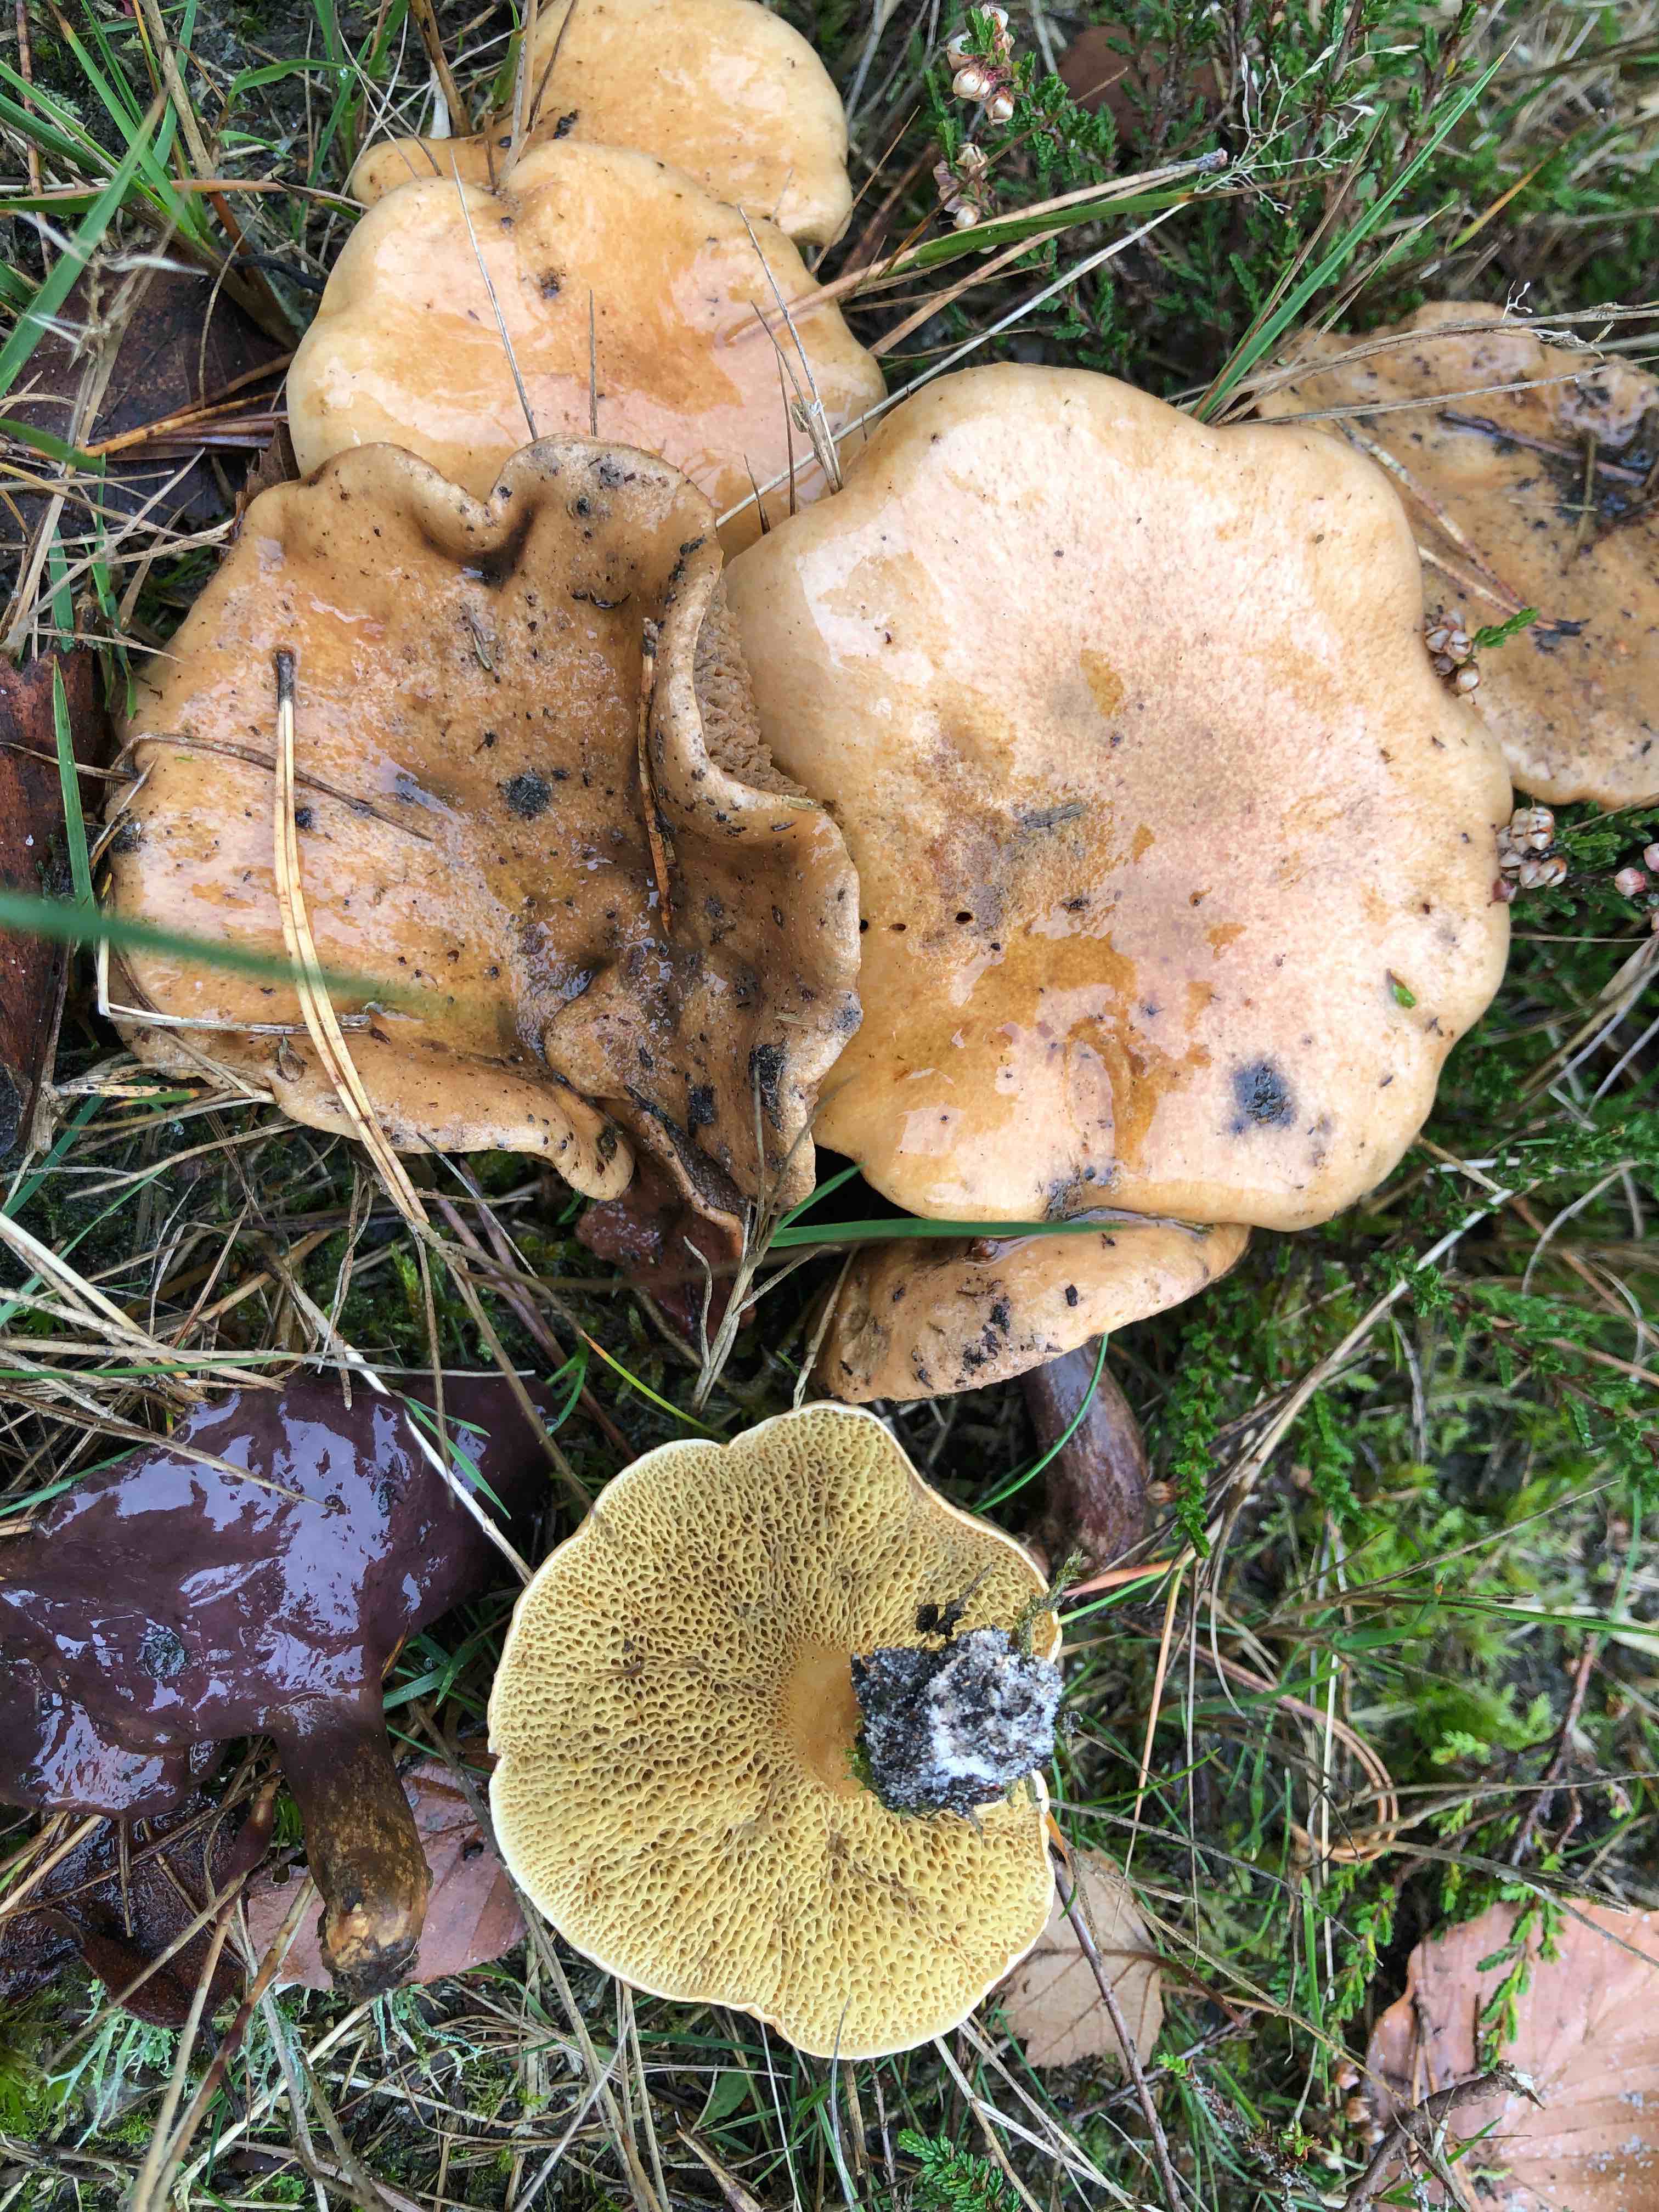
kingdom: Fungi
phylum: Basidiomycota
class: Agaricomycetes
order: Boletales
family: Suillaceae
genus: Suillus
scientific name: Suillus bovinus
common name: grovporet slimrørhat
